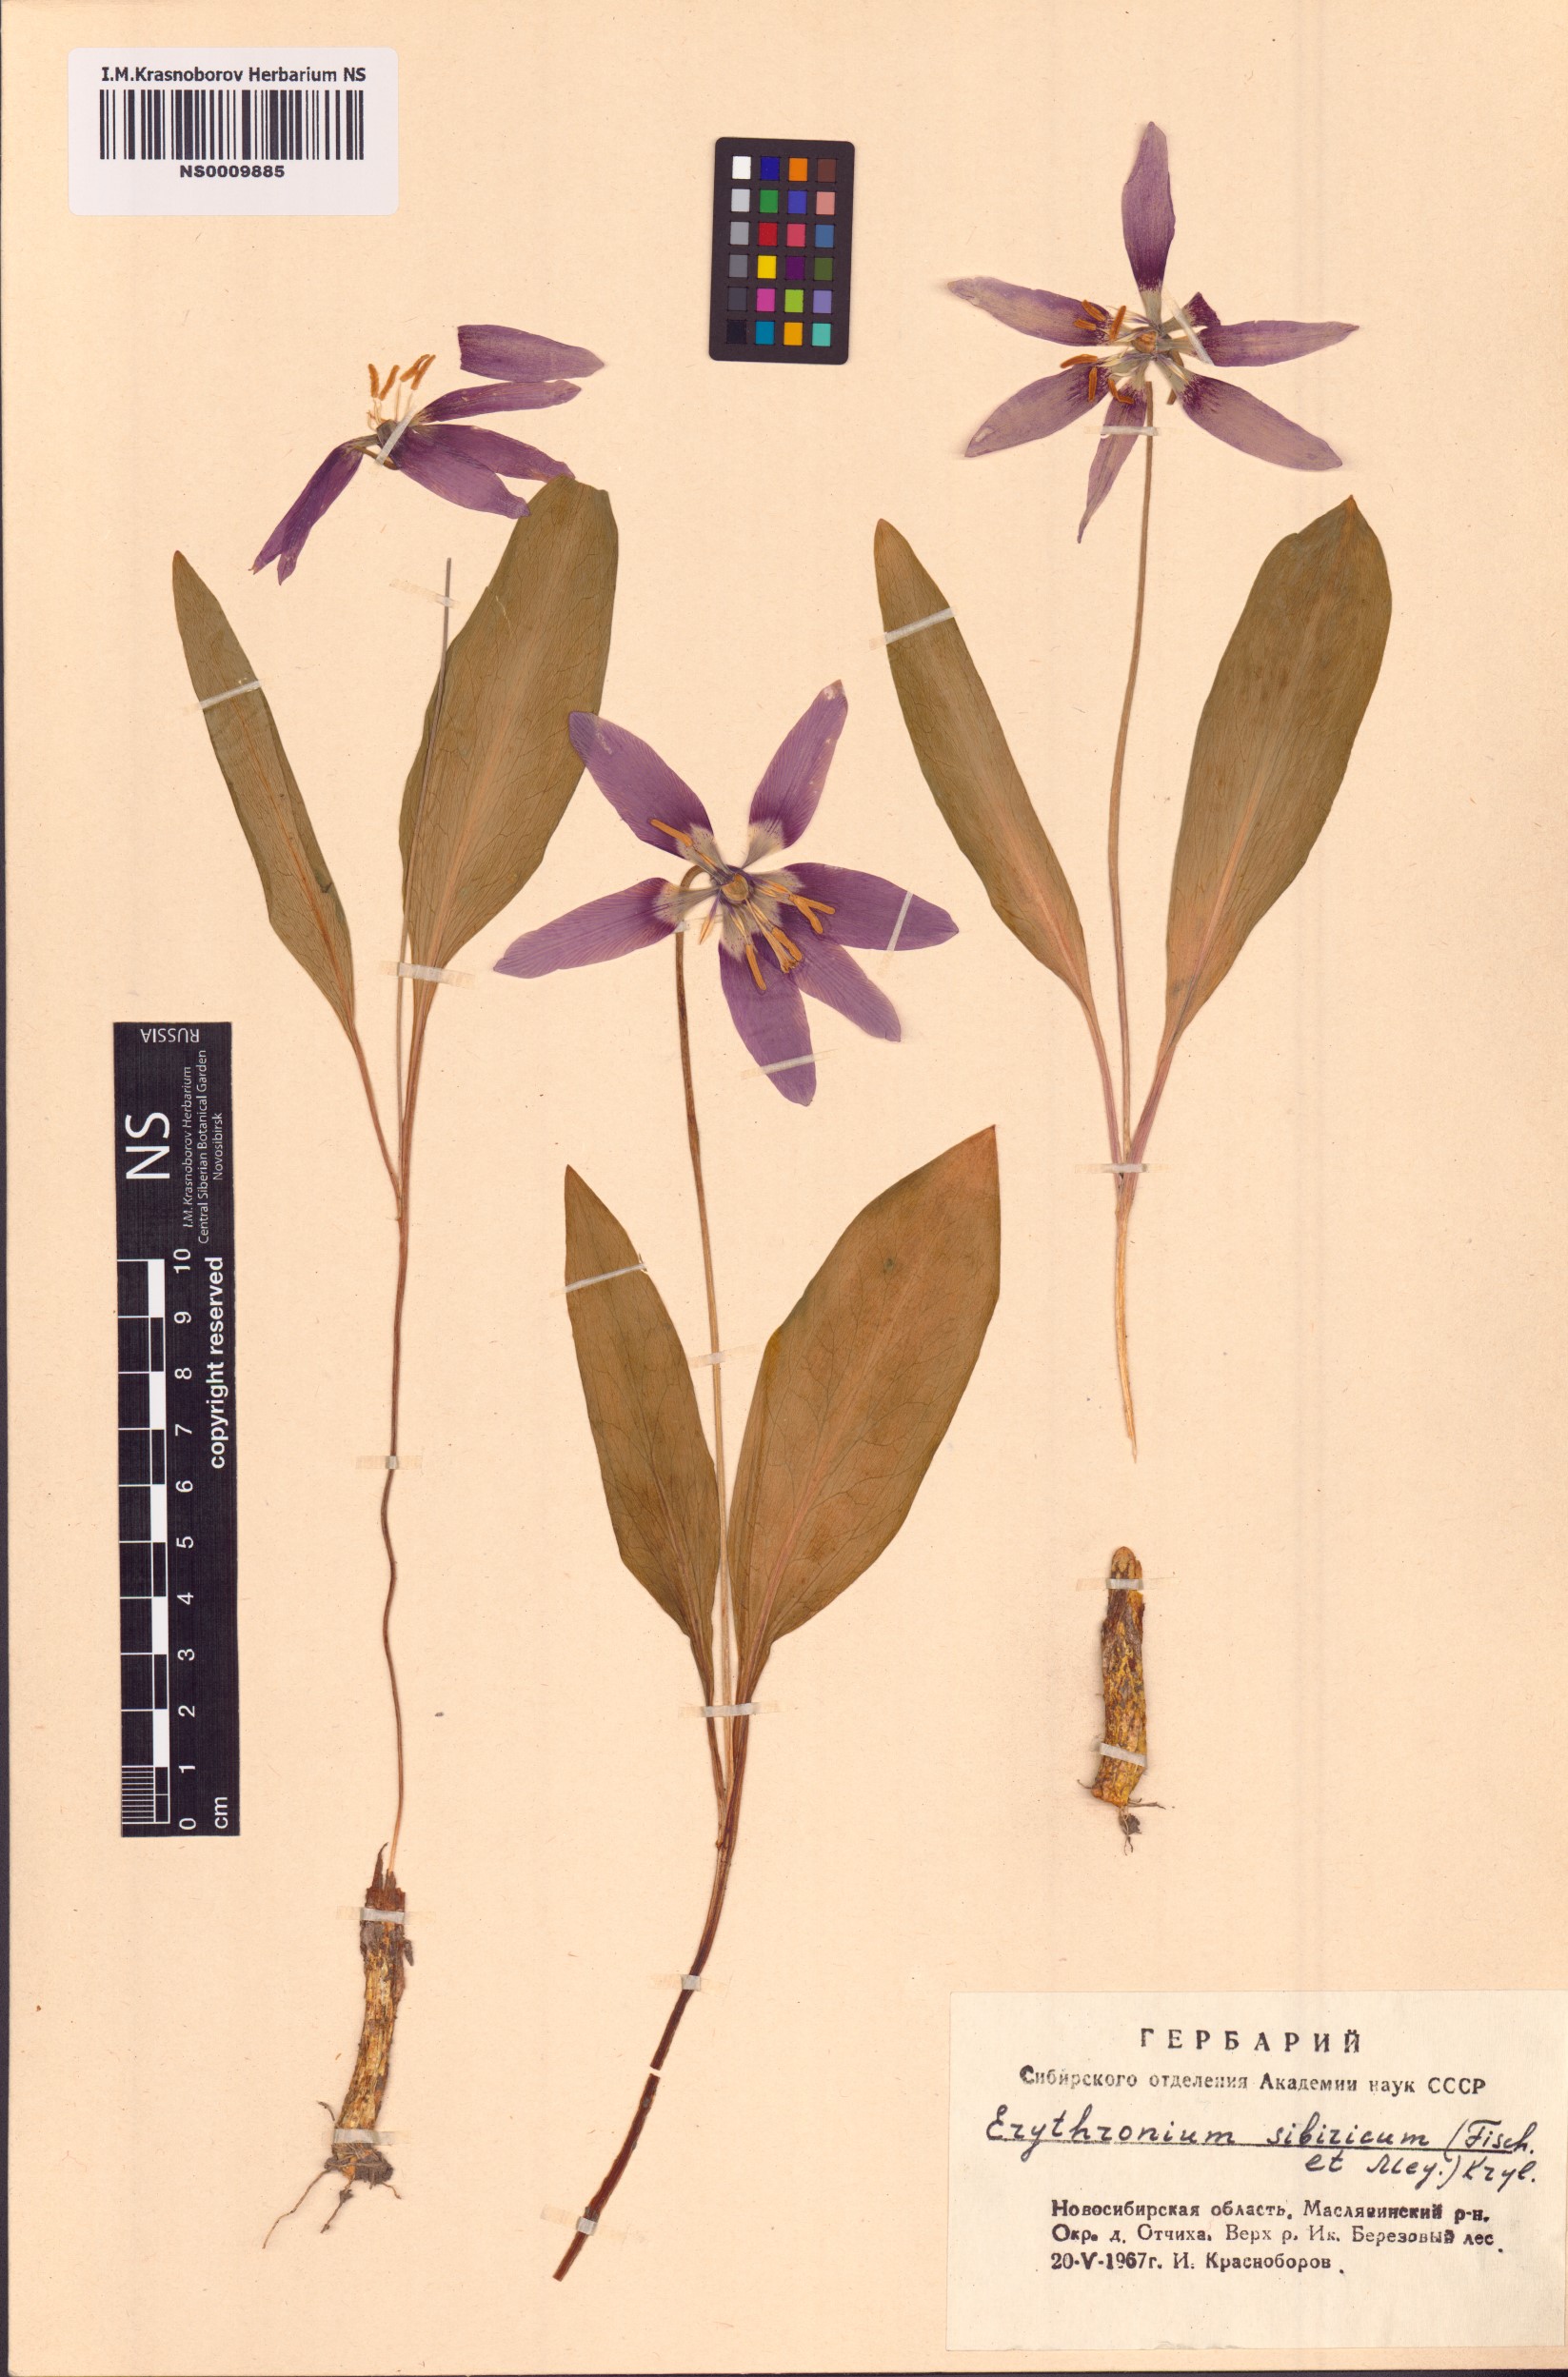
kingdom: Plantae
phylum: Tracheophyta
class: Liliopsida
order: Liliales
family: Liliaceae
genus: Erythronium
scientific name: Erythronium sibiricum
